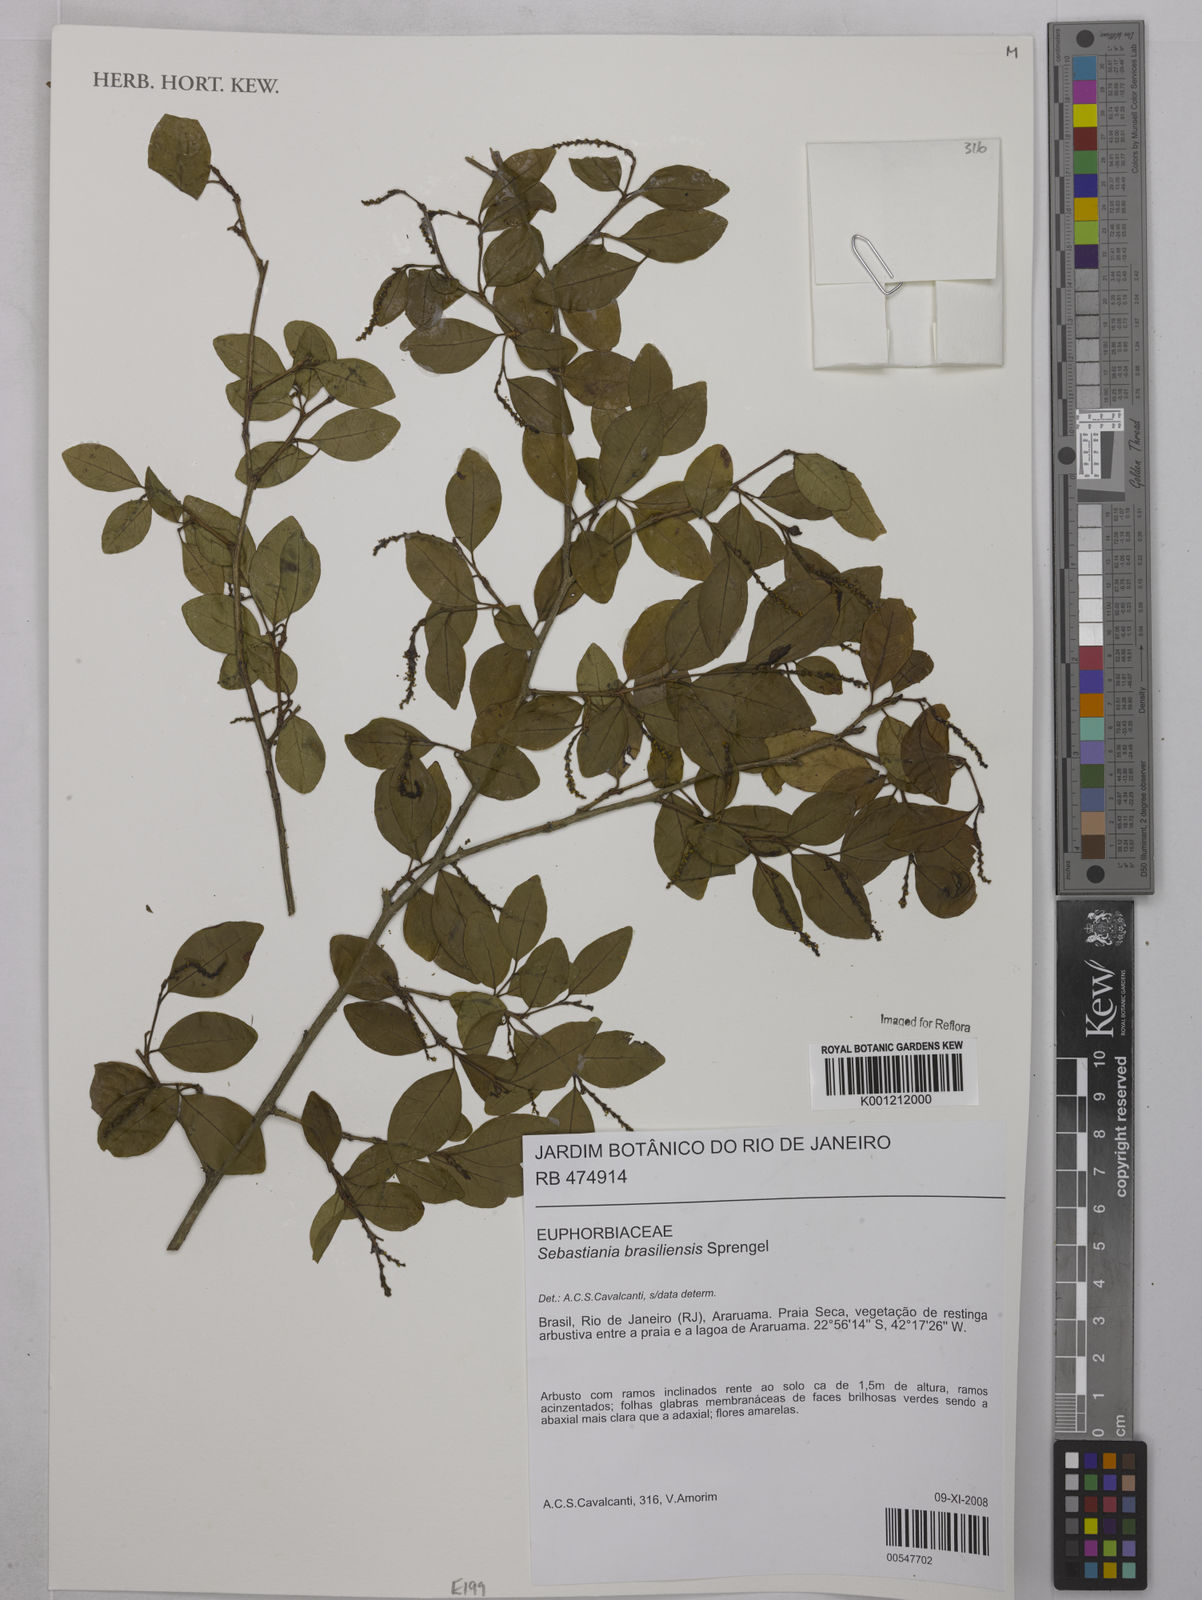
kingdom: Plantae
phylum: Tracheophyta
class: Magnoliopsida
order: Malpighiales
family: Euphorbiaceae
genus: Sebastiania
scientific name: Sebastiania brasiliensis
